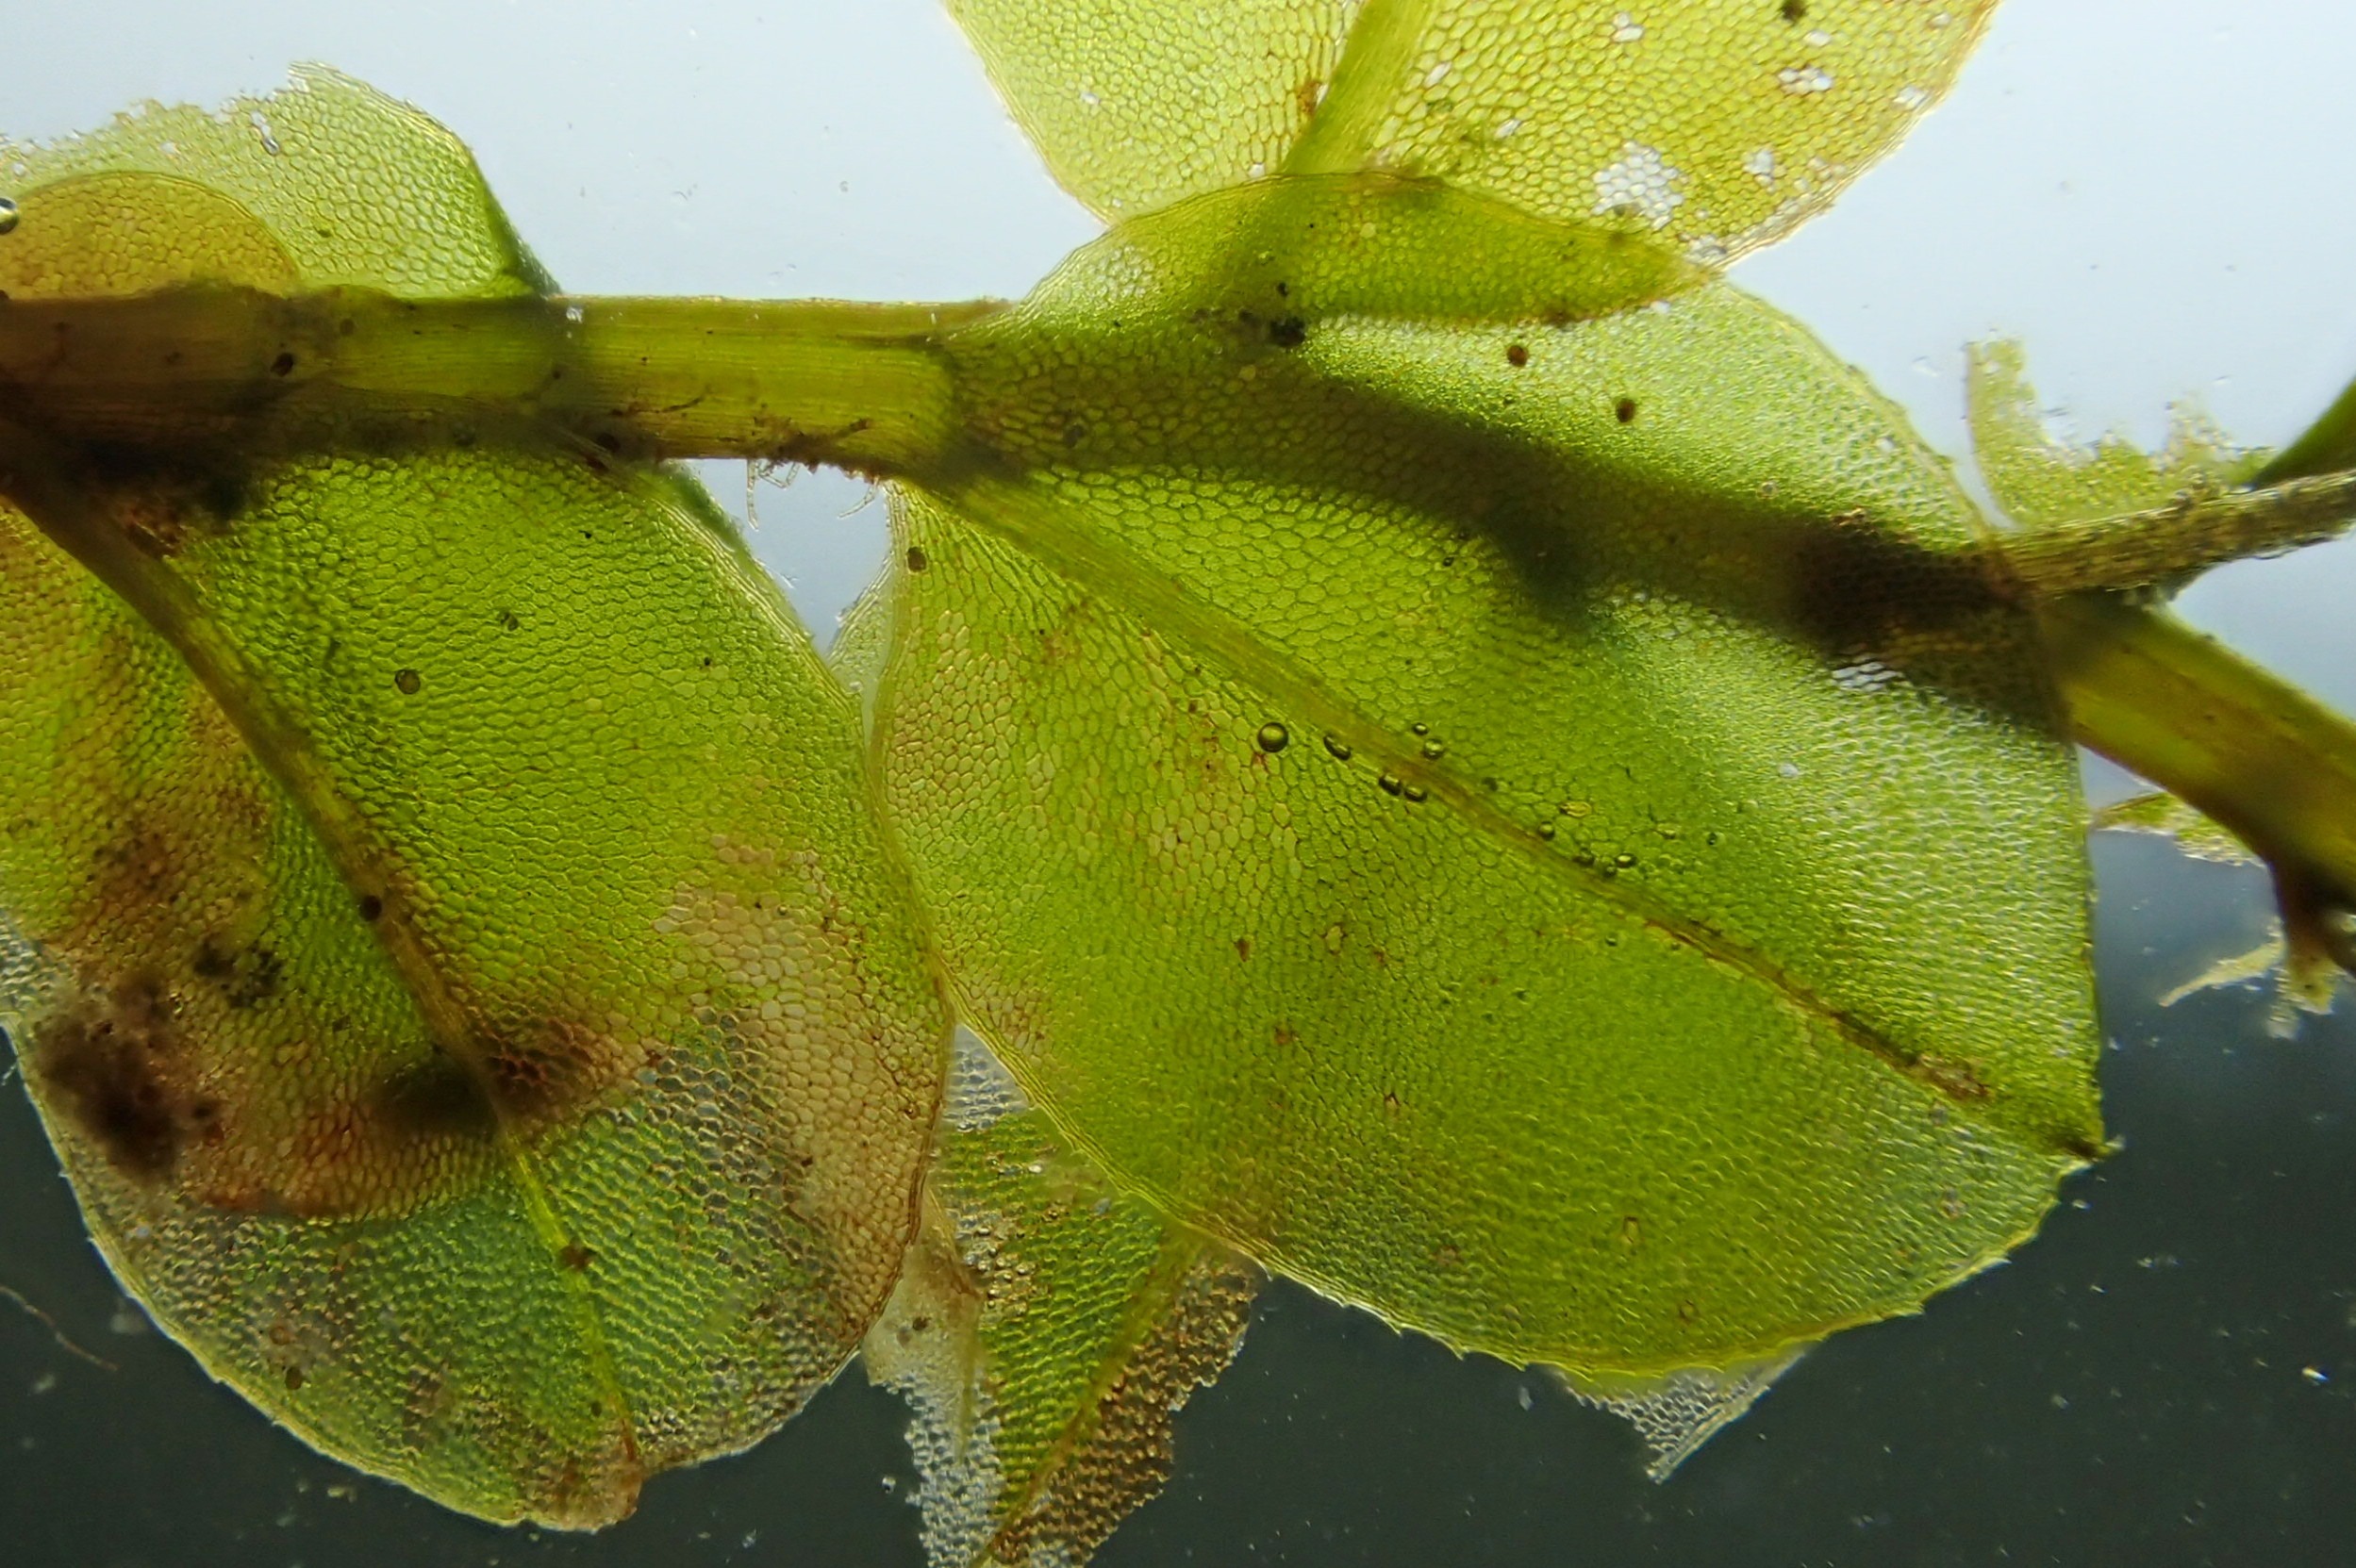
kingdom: Plantae
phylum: Bryophyta
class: Bryopsida
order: Bryales
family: Mniaceae
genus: Plagiomnium
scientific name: Plagiomnium affine
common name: Fælled-krybstjerne
